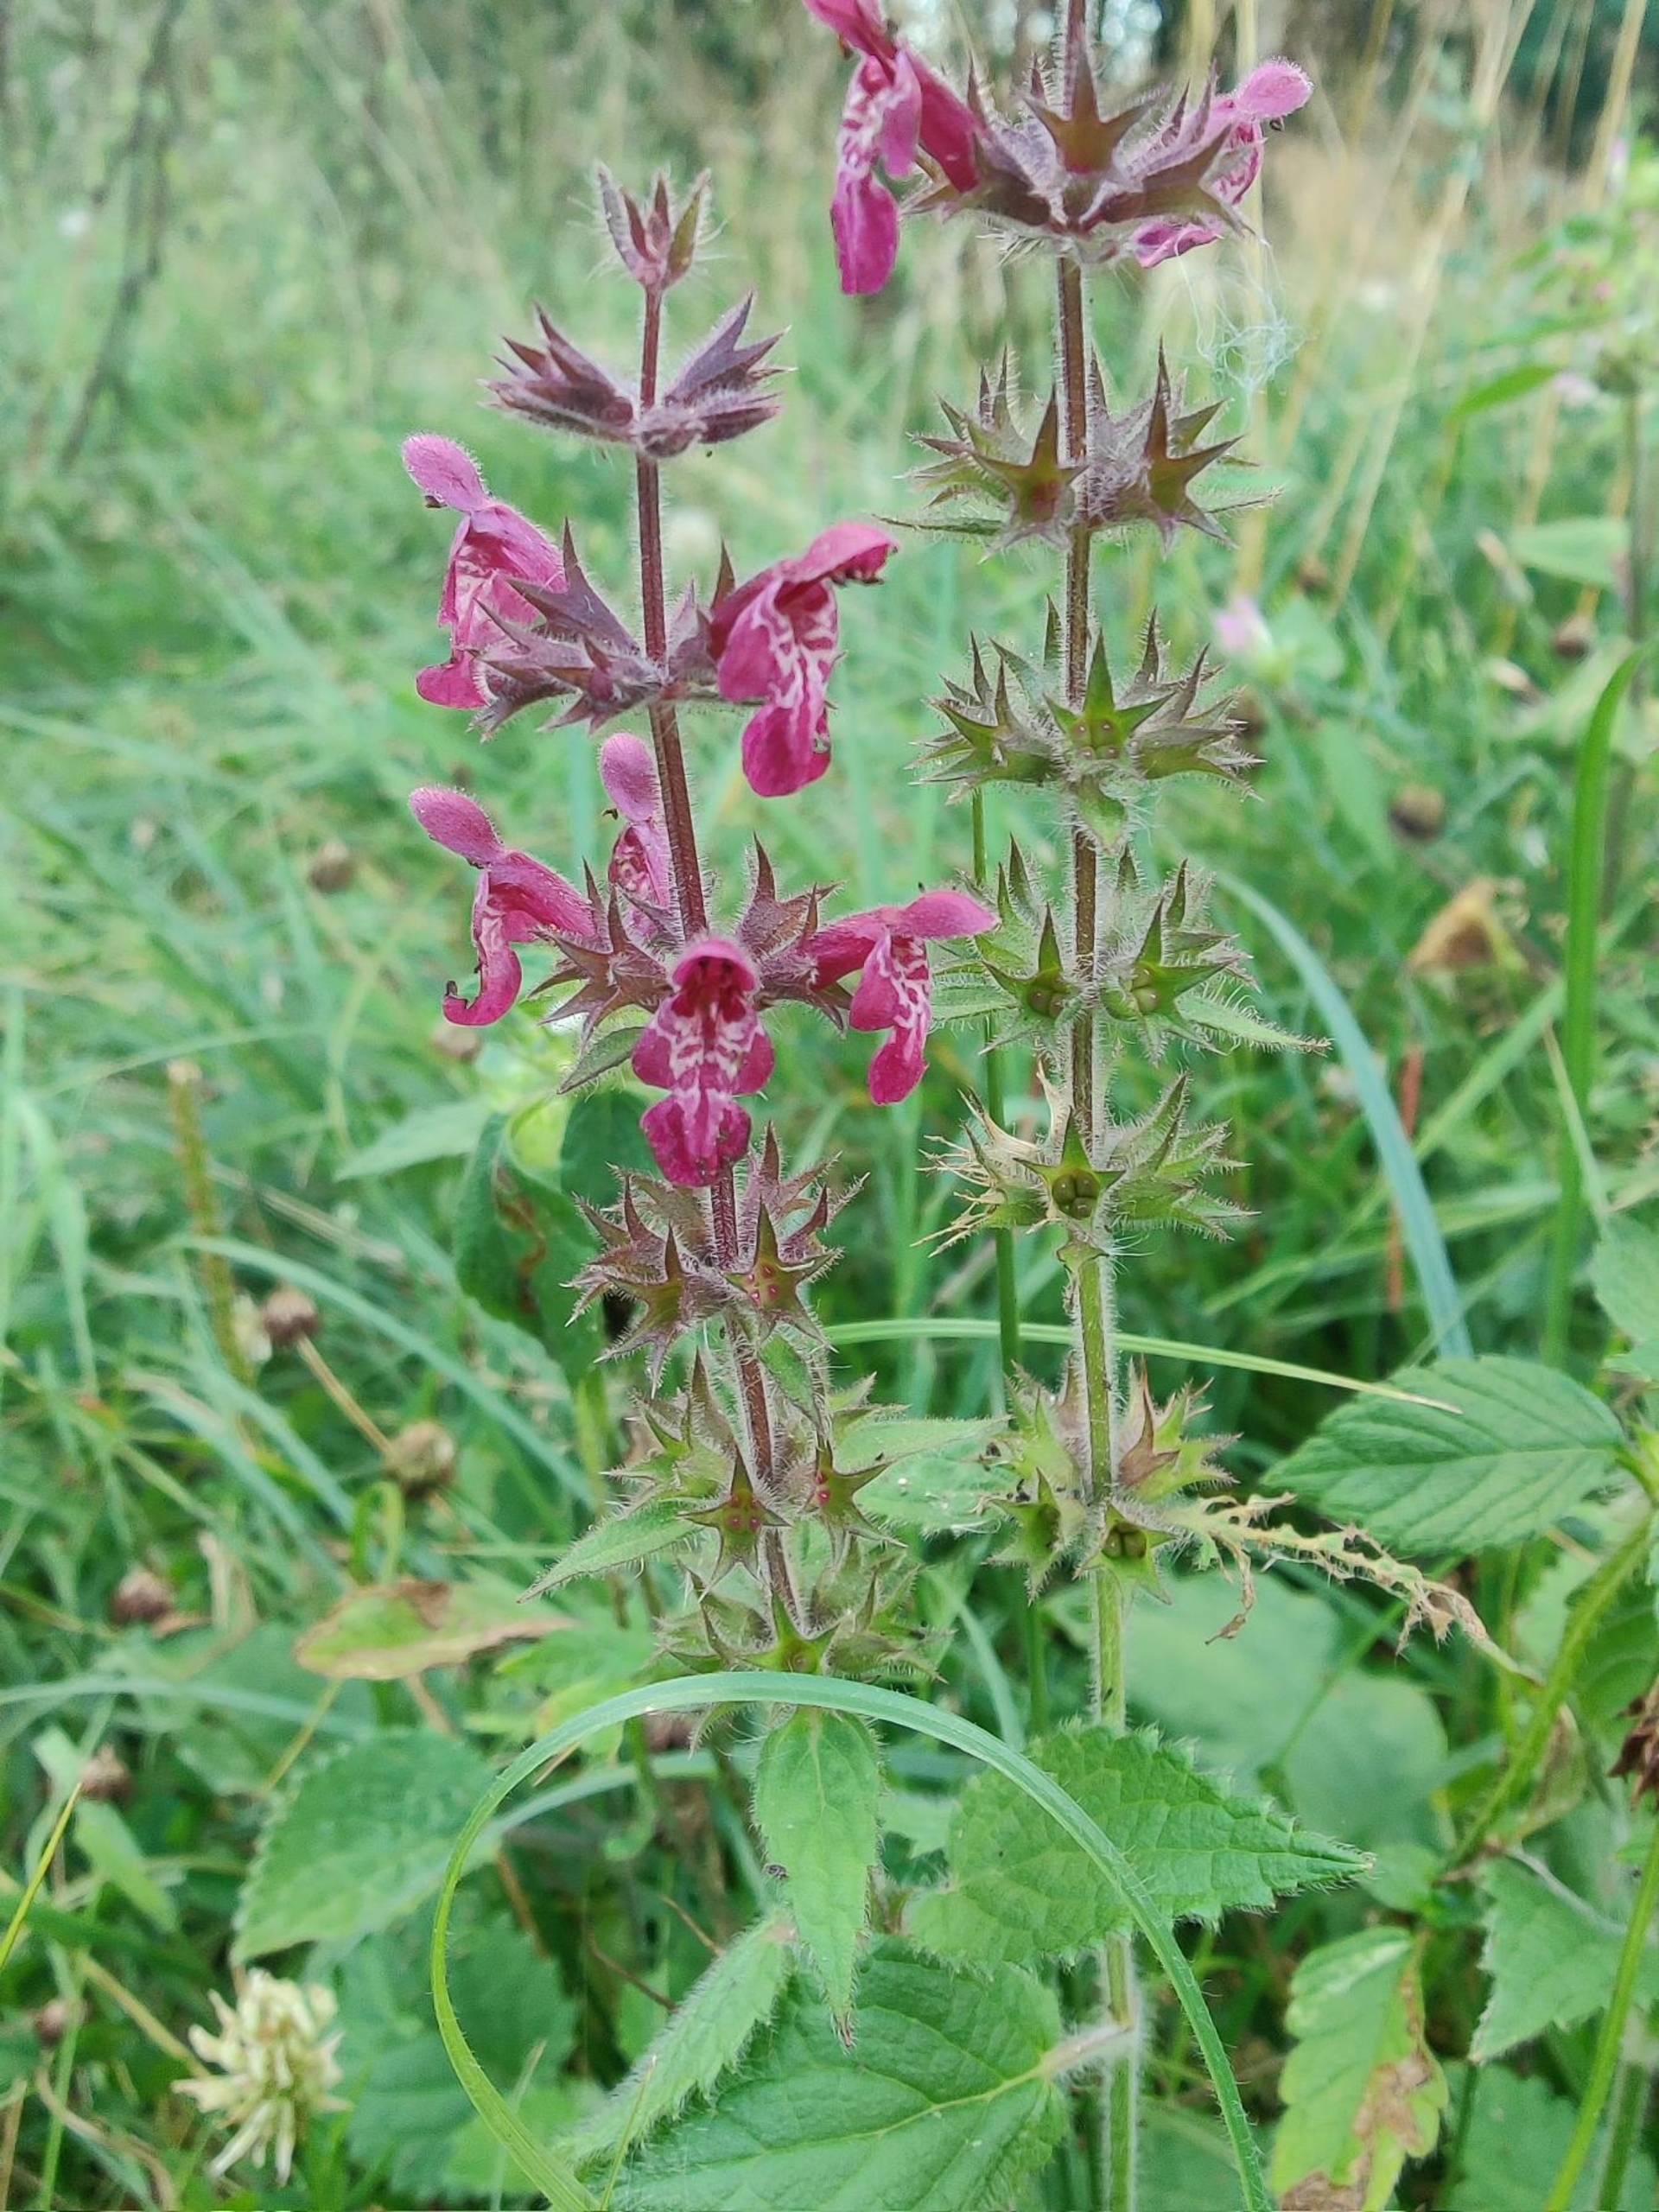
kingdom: Plantae
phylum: Tracheophyta
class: Magnoliopsida
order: Lamiales
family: Lamiaceae
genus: Stachys
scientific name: Stachys sylvatica
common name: Skov-galtetand
